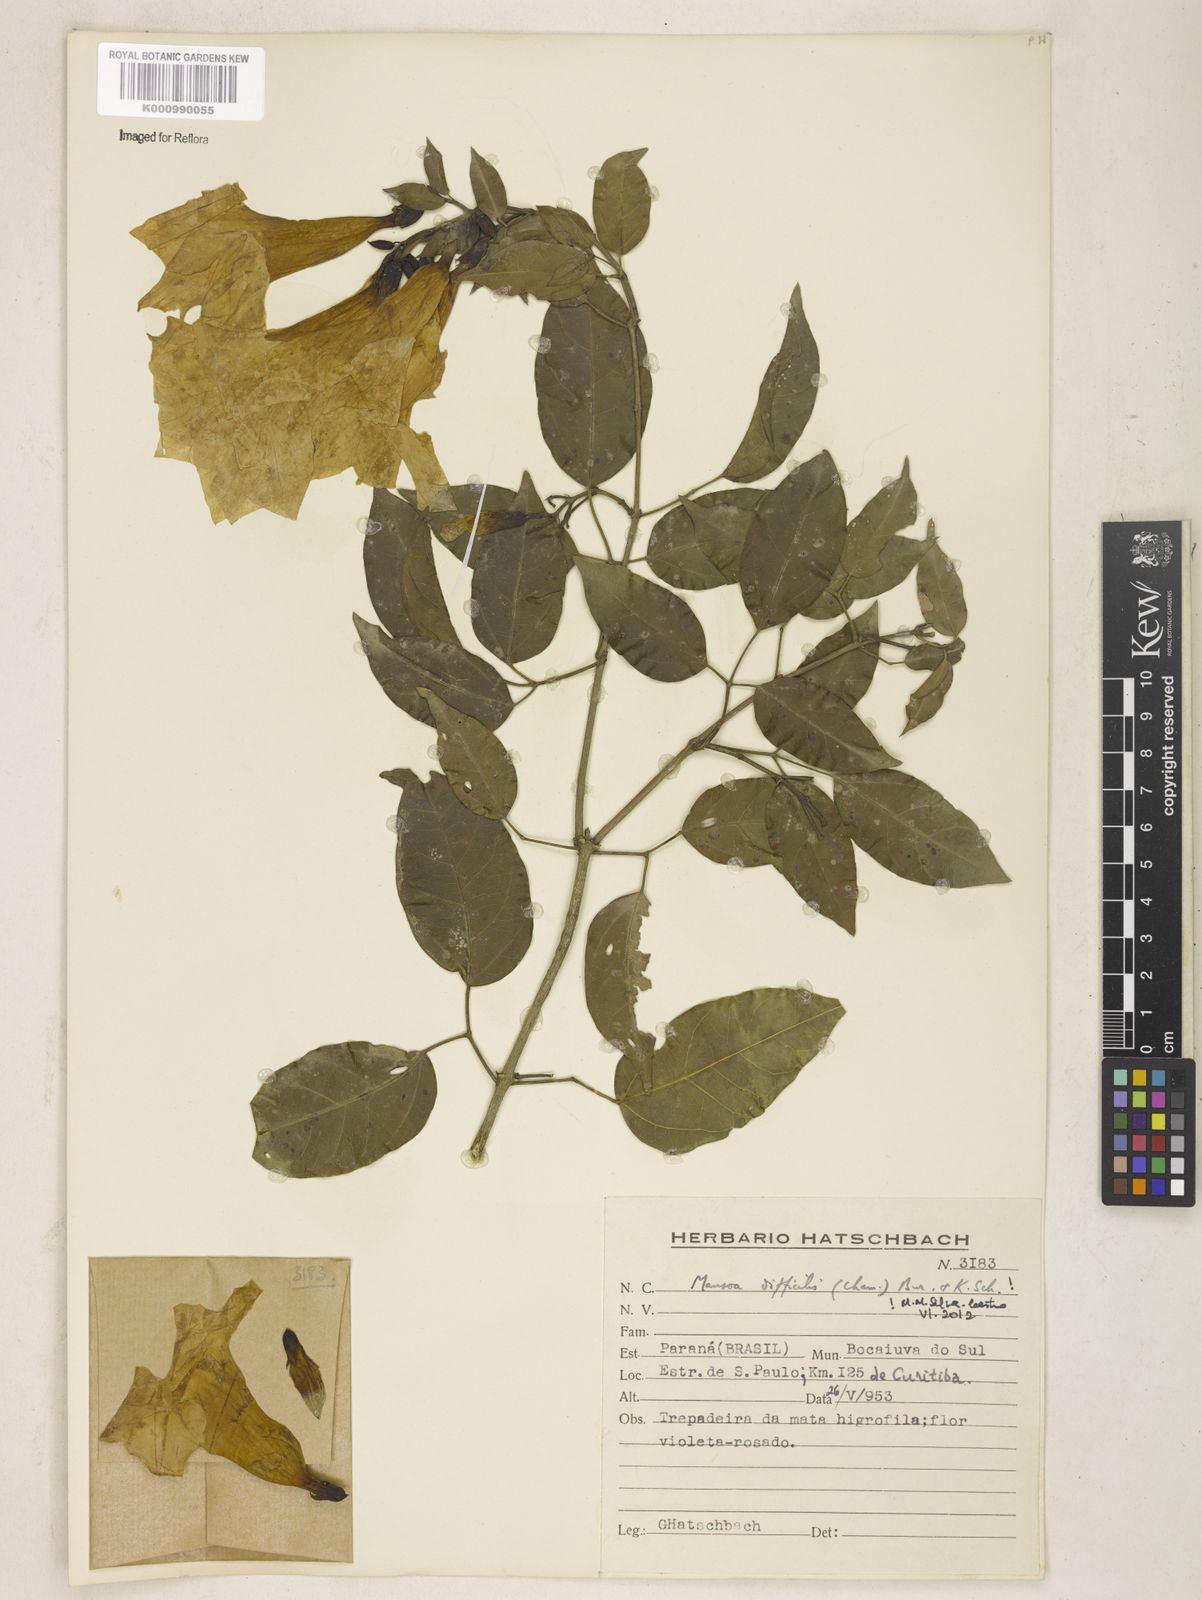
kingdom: Plantae
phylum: Tracheophyta
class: Magnoliopsida
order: Lamiales
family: Bignoniaceae
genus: Mansoa
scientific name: Mansoa difficilis
